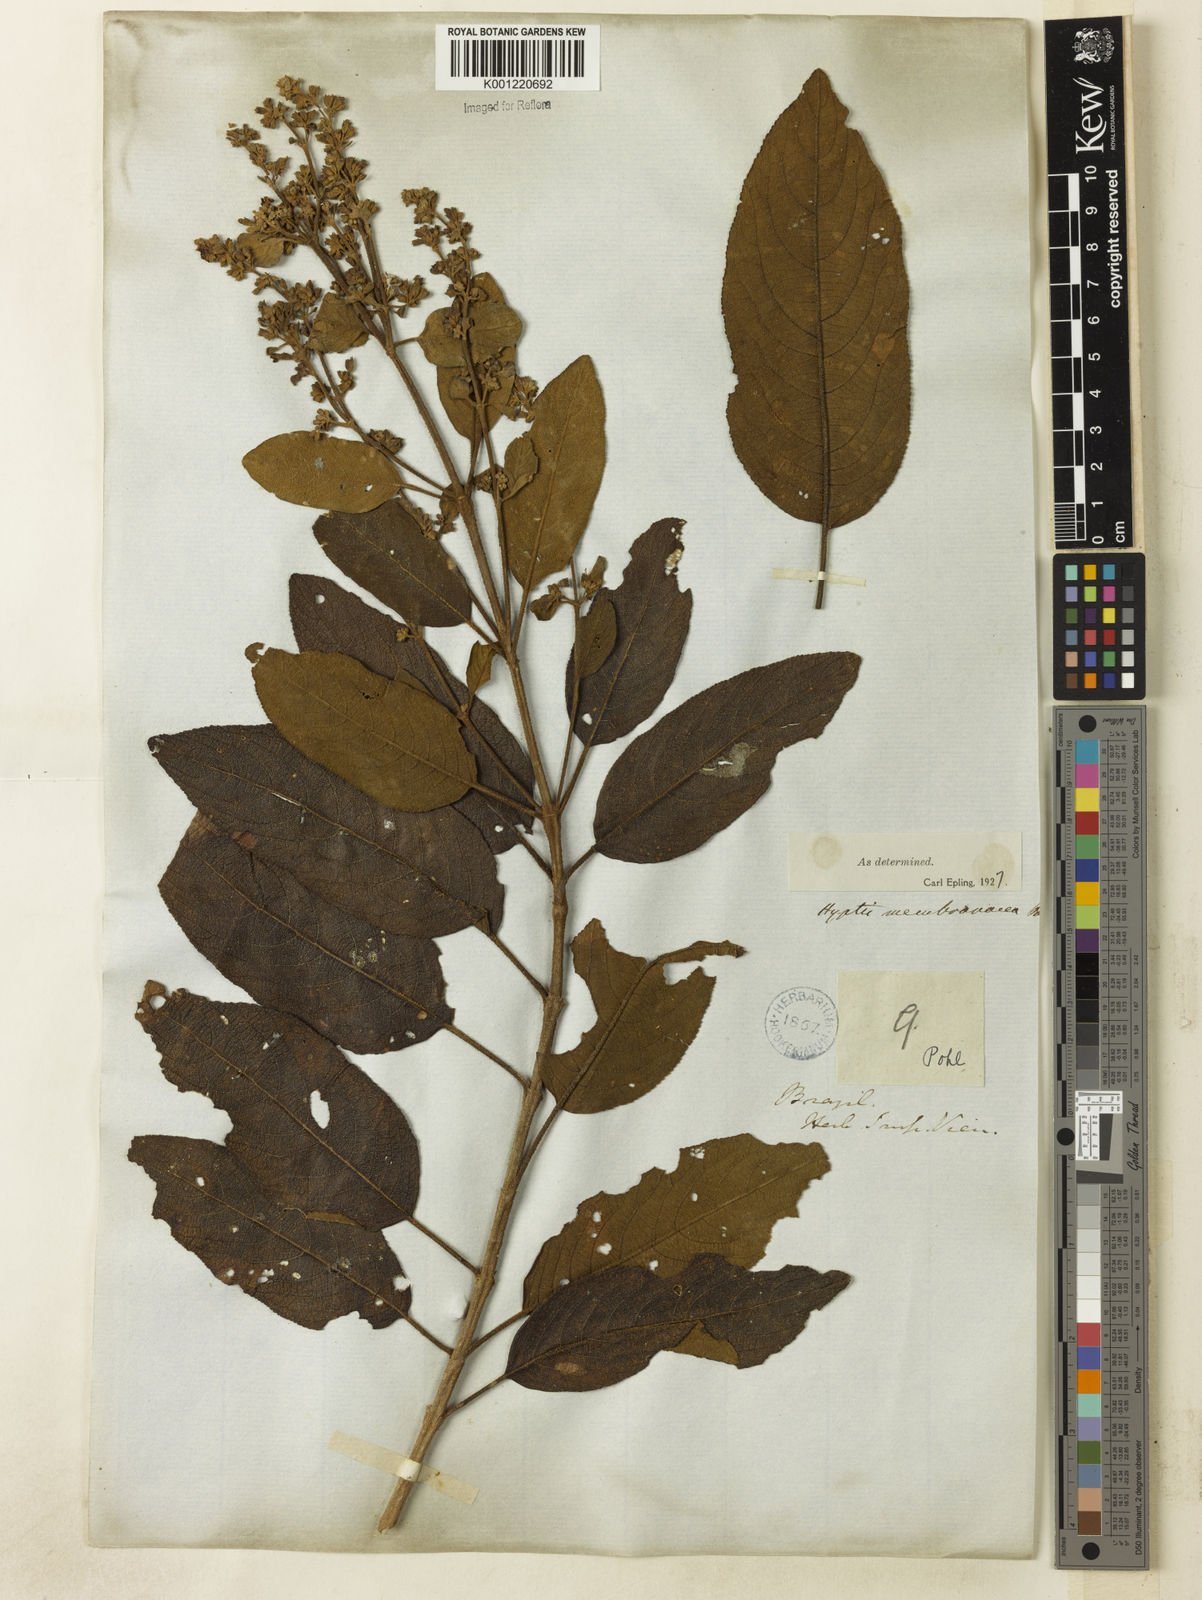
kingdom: Plantae
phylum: Tracheophyta
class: Magnoliopsida
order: Lamiales
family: Lamiaceae
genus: Hyptidendron
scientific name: Hyptidendron asperrimum
